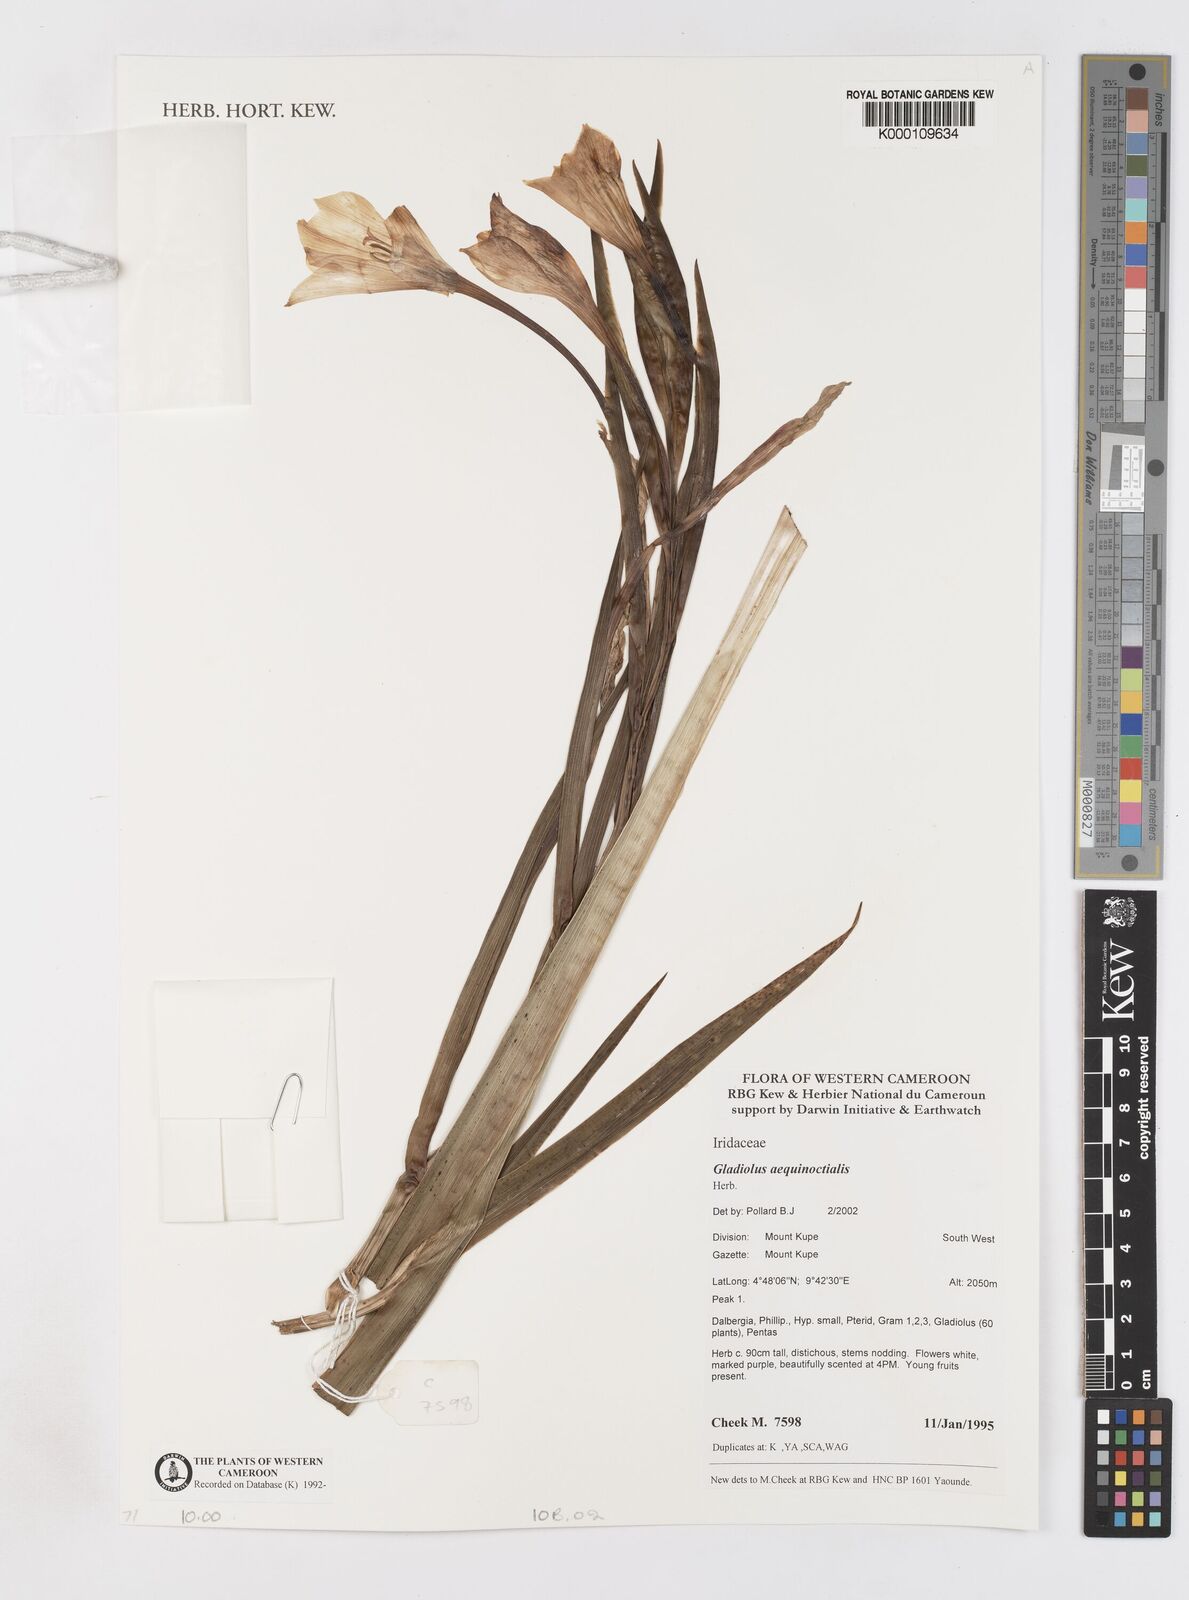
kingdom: Plantae
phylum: Tracheophyta
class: Liliopsida
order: Asparagales
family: Iridaceae
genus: Gladiolus
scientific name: Gladiolus aequinoctialis
